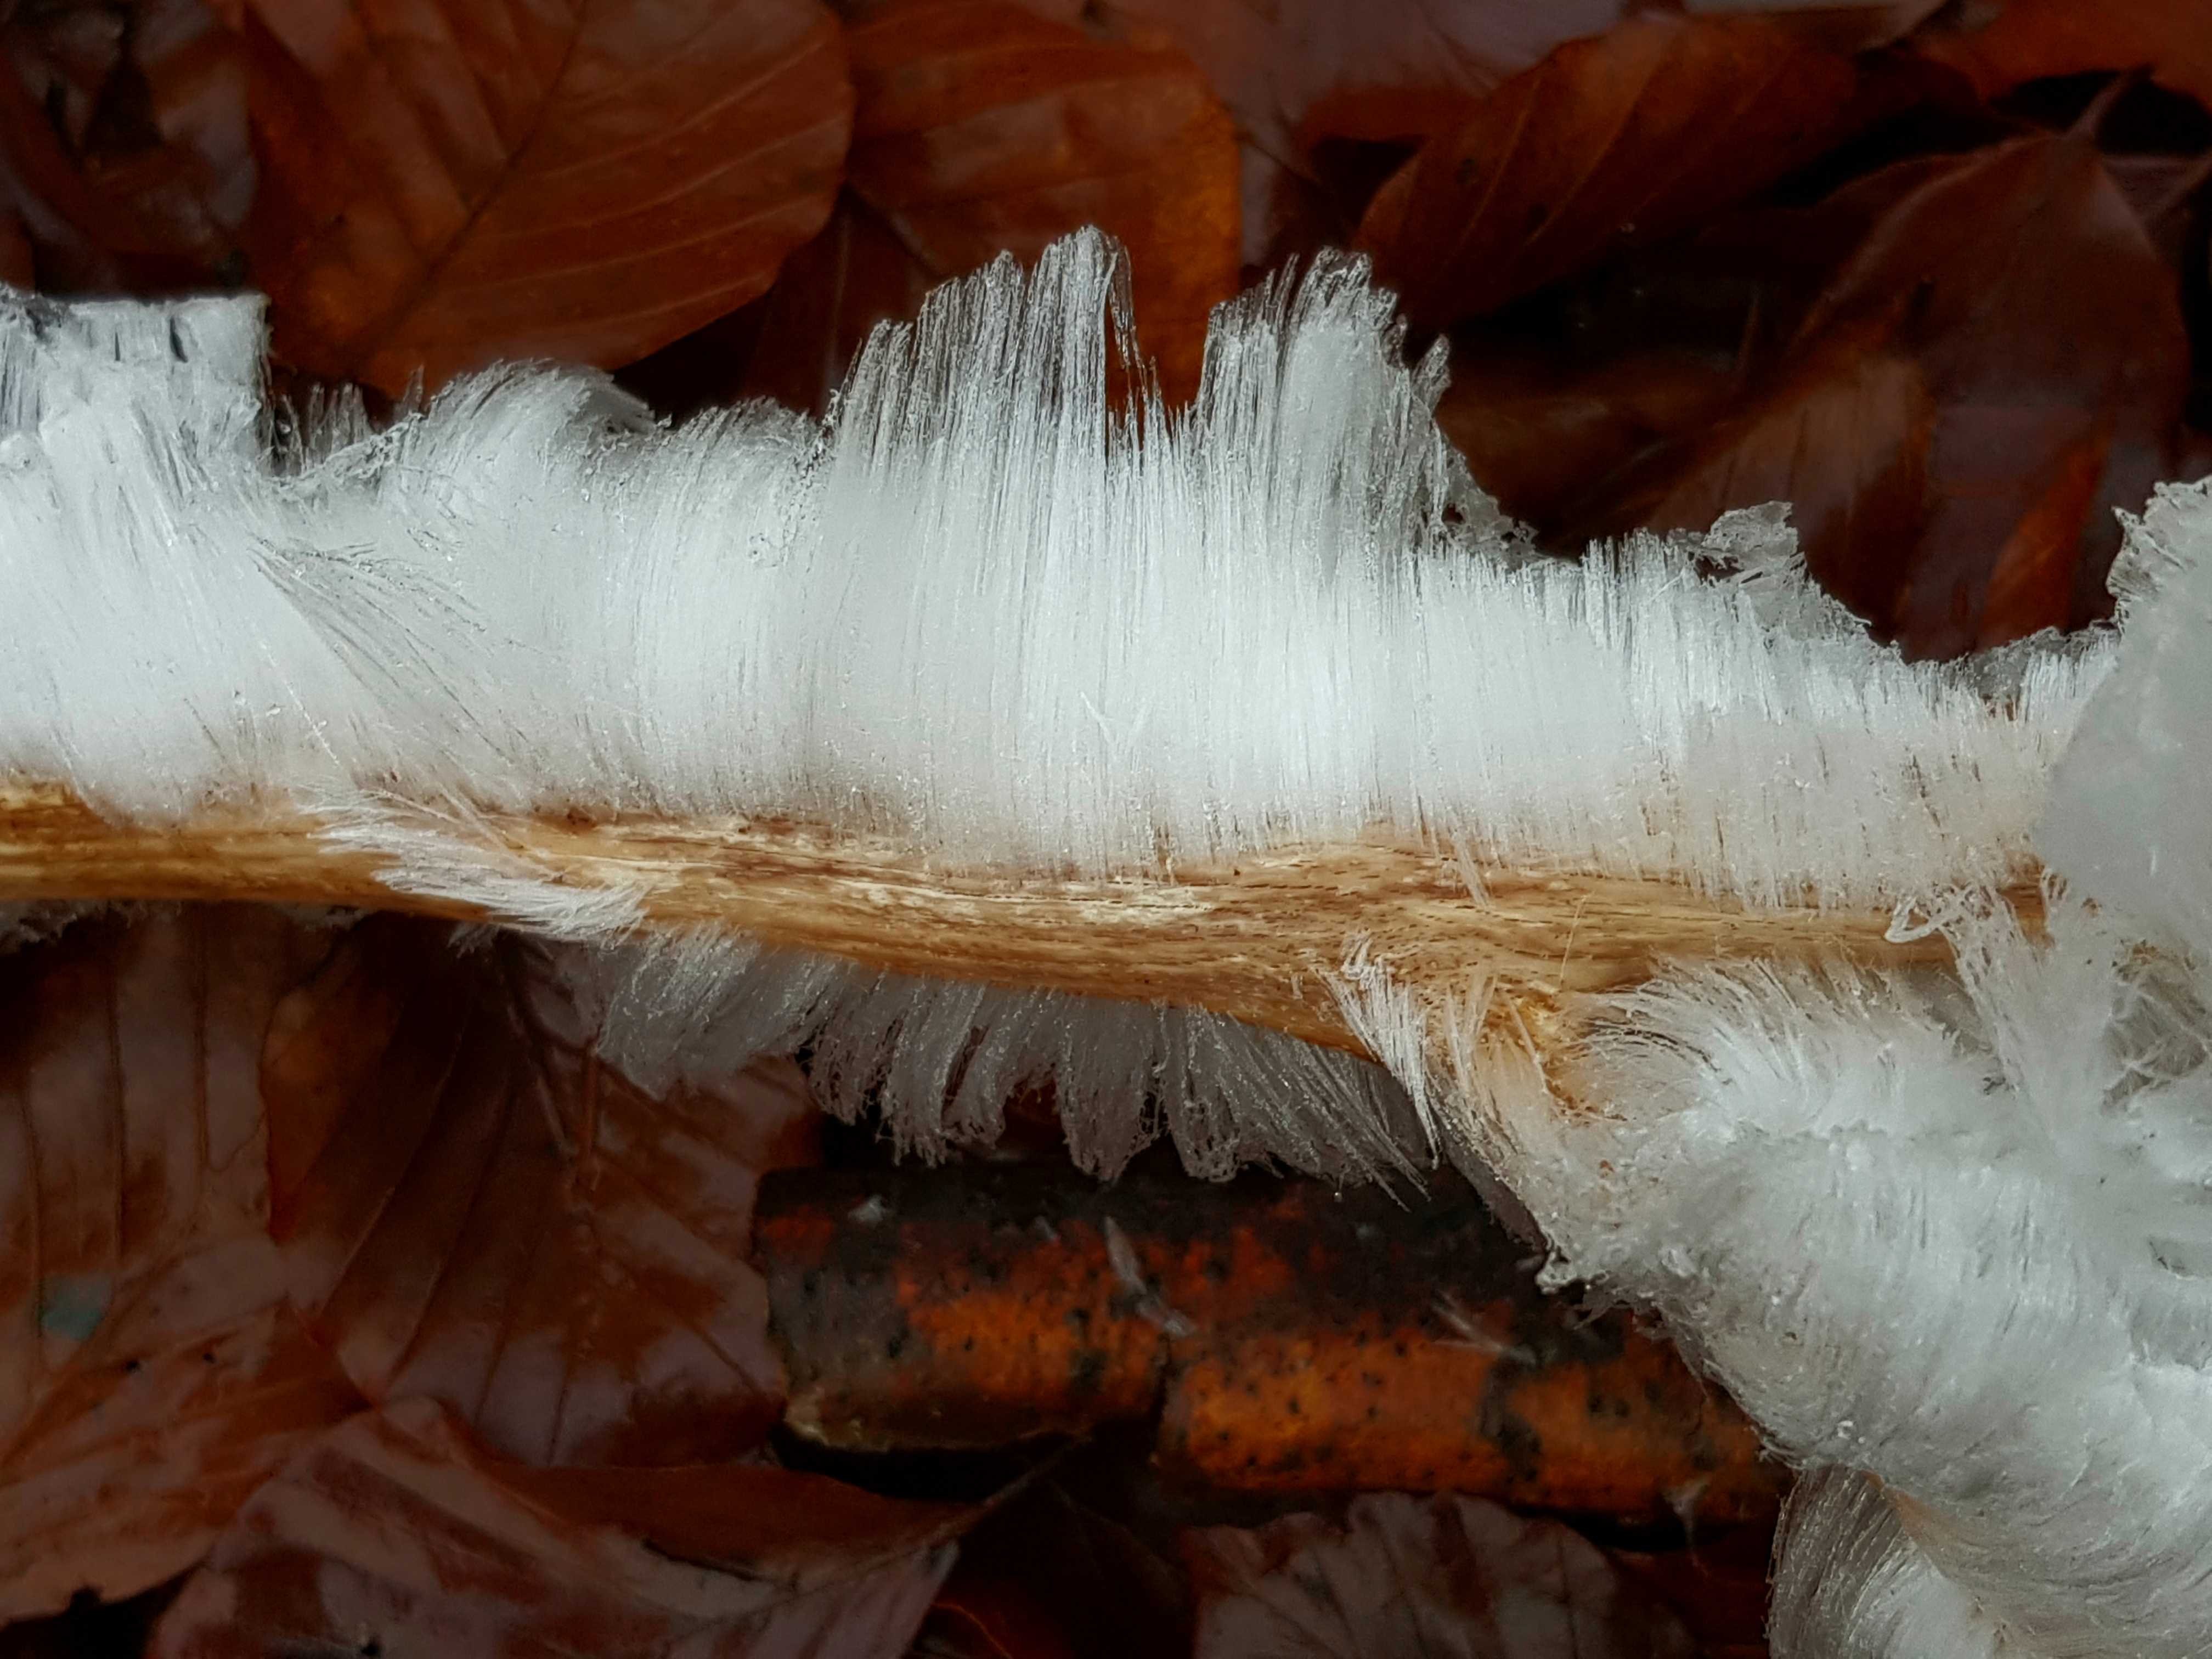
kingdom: Fungi
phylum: Basidiomycota
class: Tremellomycetes
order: Tremellales
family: Exidiaceae
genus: Exidiopsis
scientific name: Exidiopsis effusa
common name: smuk bævrehinde
